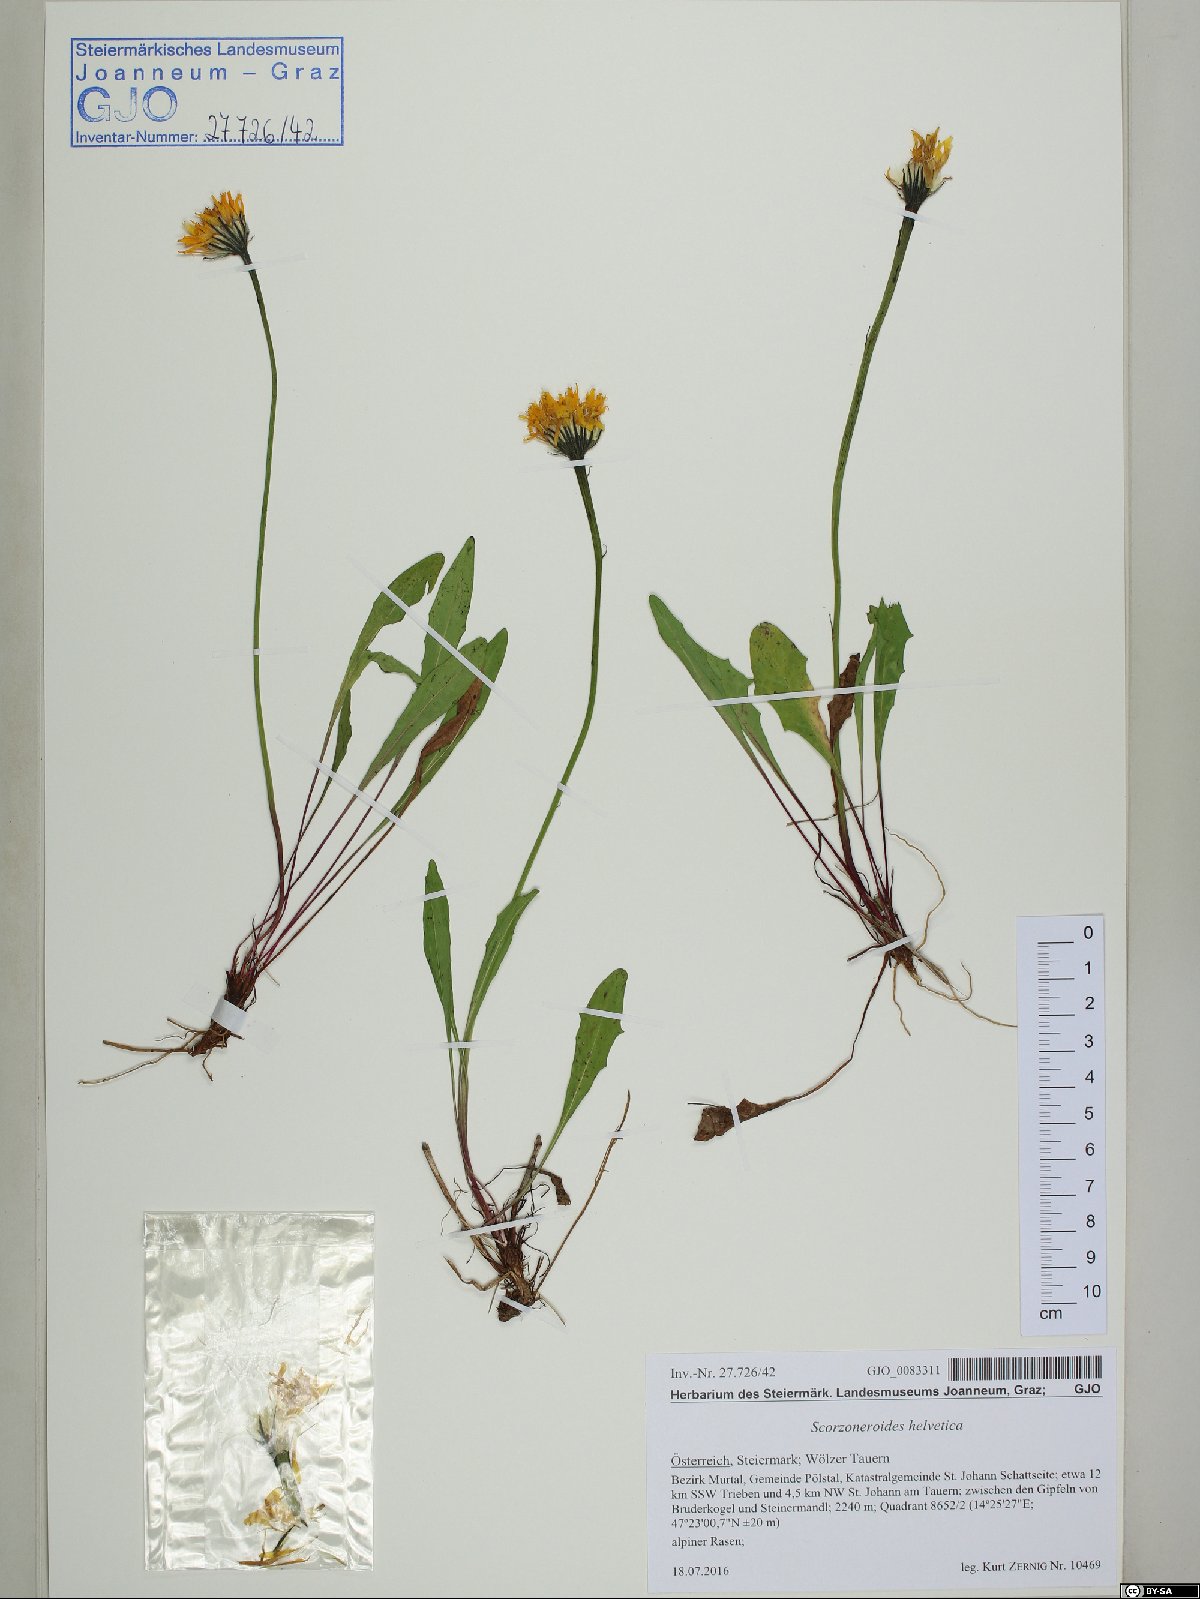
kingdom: Plantae
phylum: Tracheophyta
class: Magnoliopsida
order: Asterales
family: Asteraceae
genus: Scorzoneroides
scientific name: Scorzoneroides helvetica
